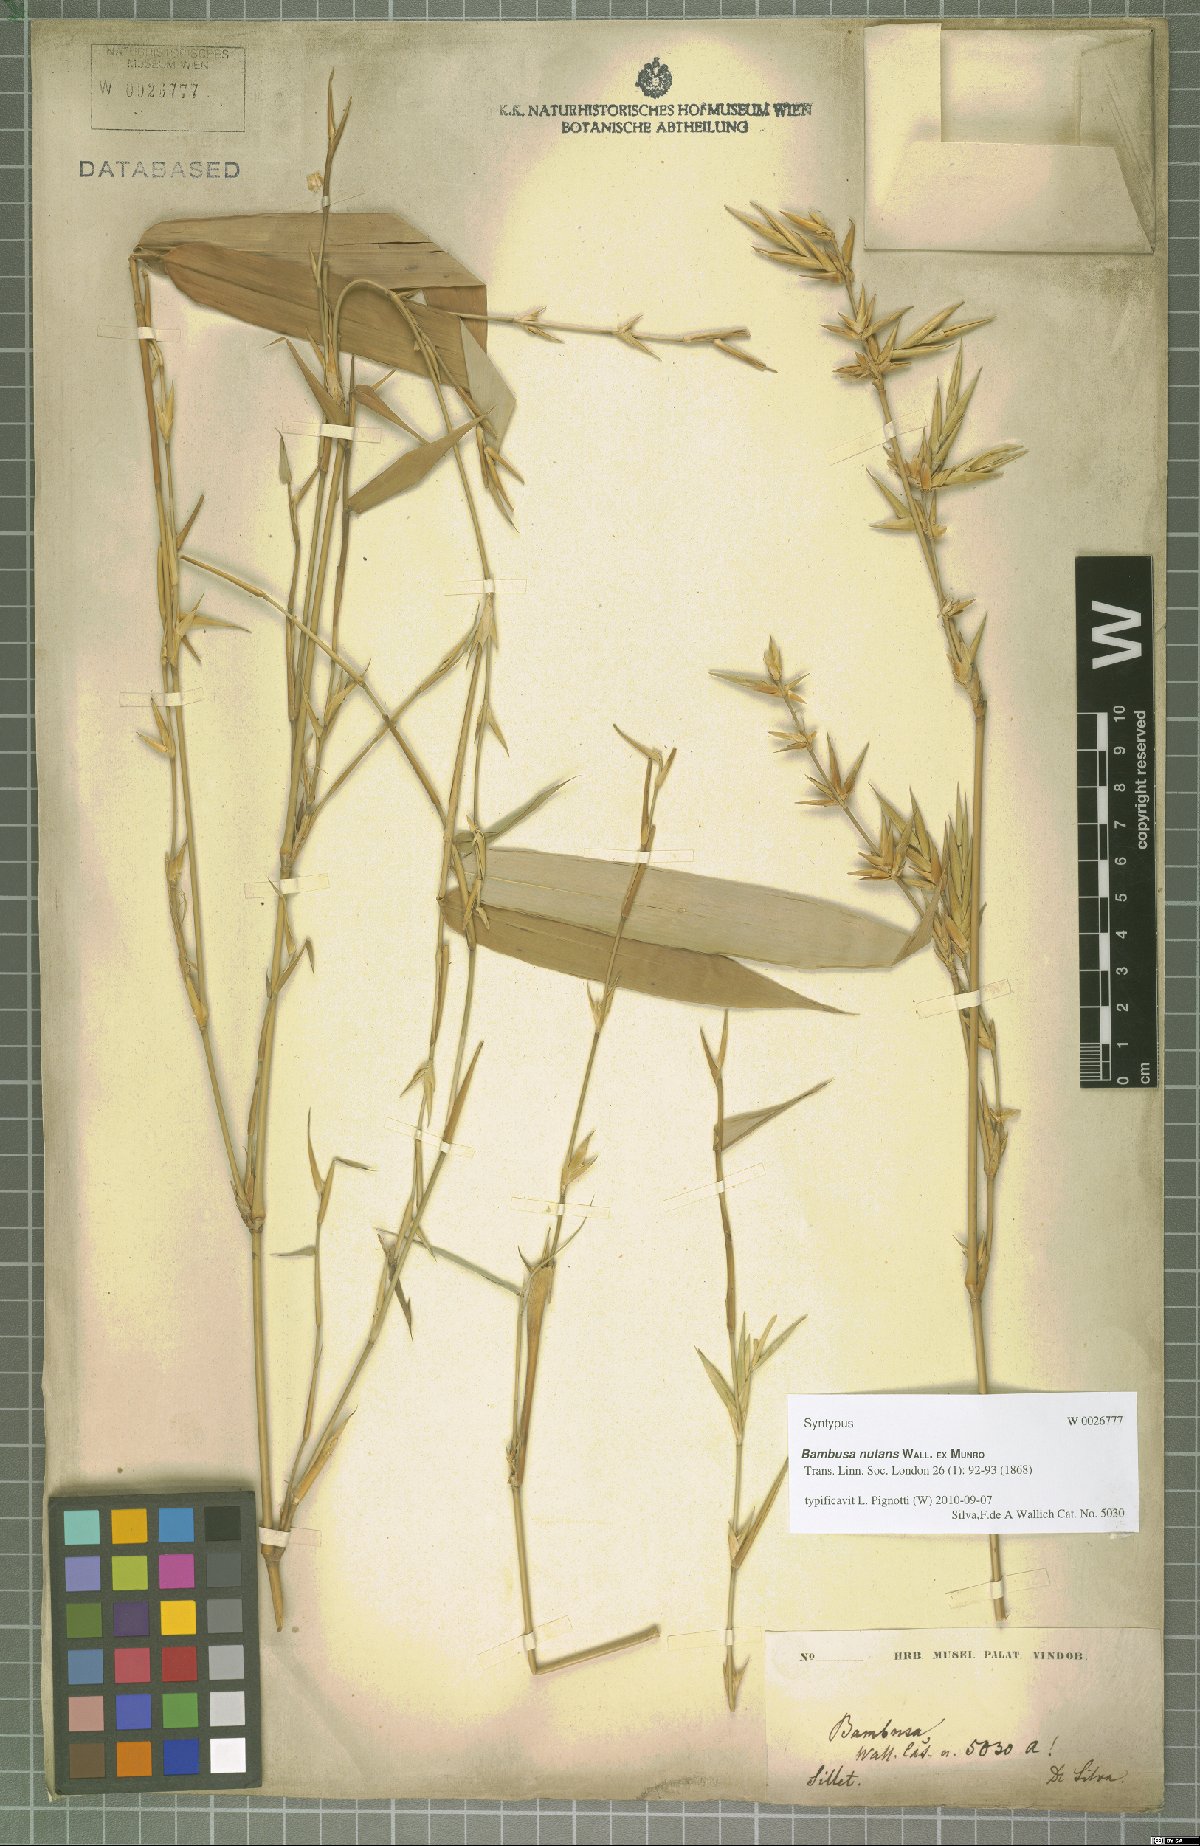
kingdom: Plantae
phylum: Tracheophyta
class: Liliopsida
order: Poales
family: Poaceae
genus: Bambusa
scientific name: Bambusa nutans
